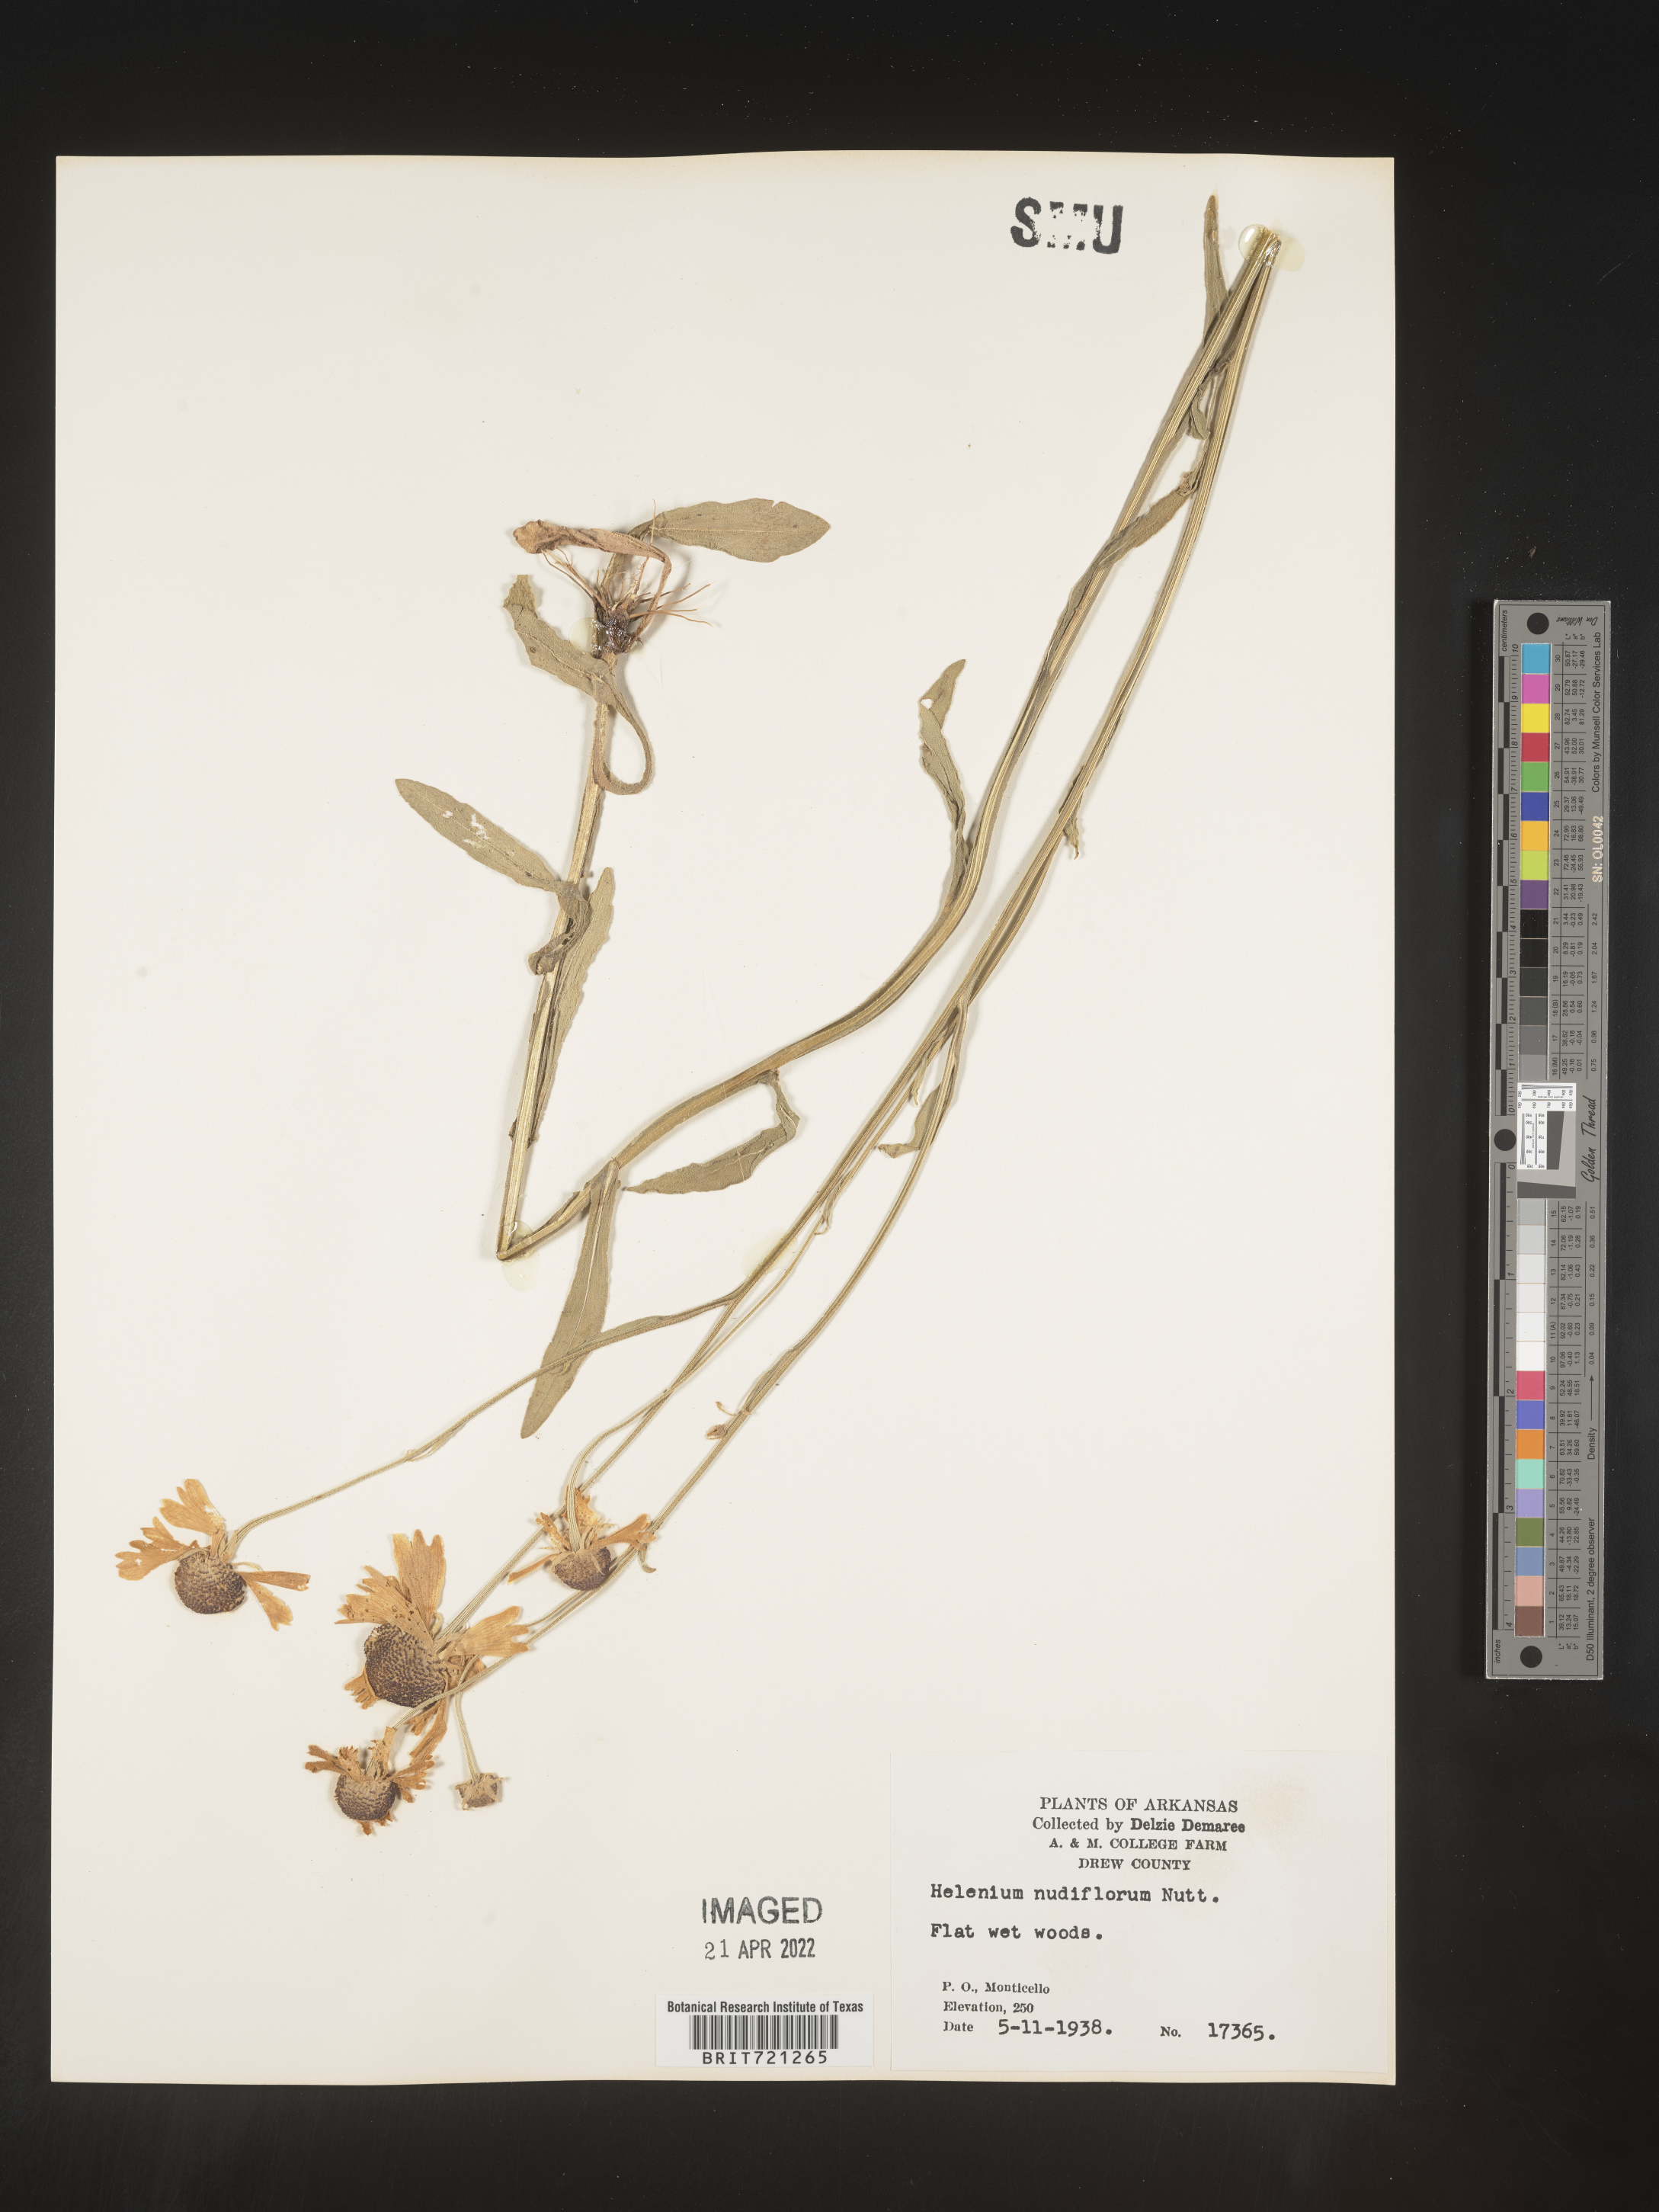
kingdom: Plantae
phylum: Tracheophyta
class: Magnoliopsida
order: Asterales
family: Asteraceae
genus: Helenium
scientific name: Helenium flexuosum
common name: Naked-flowered sneezeweed
